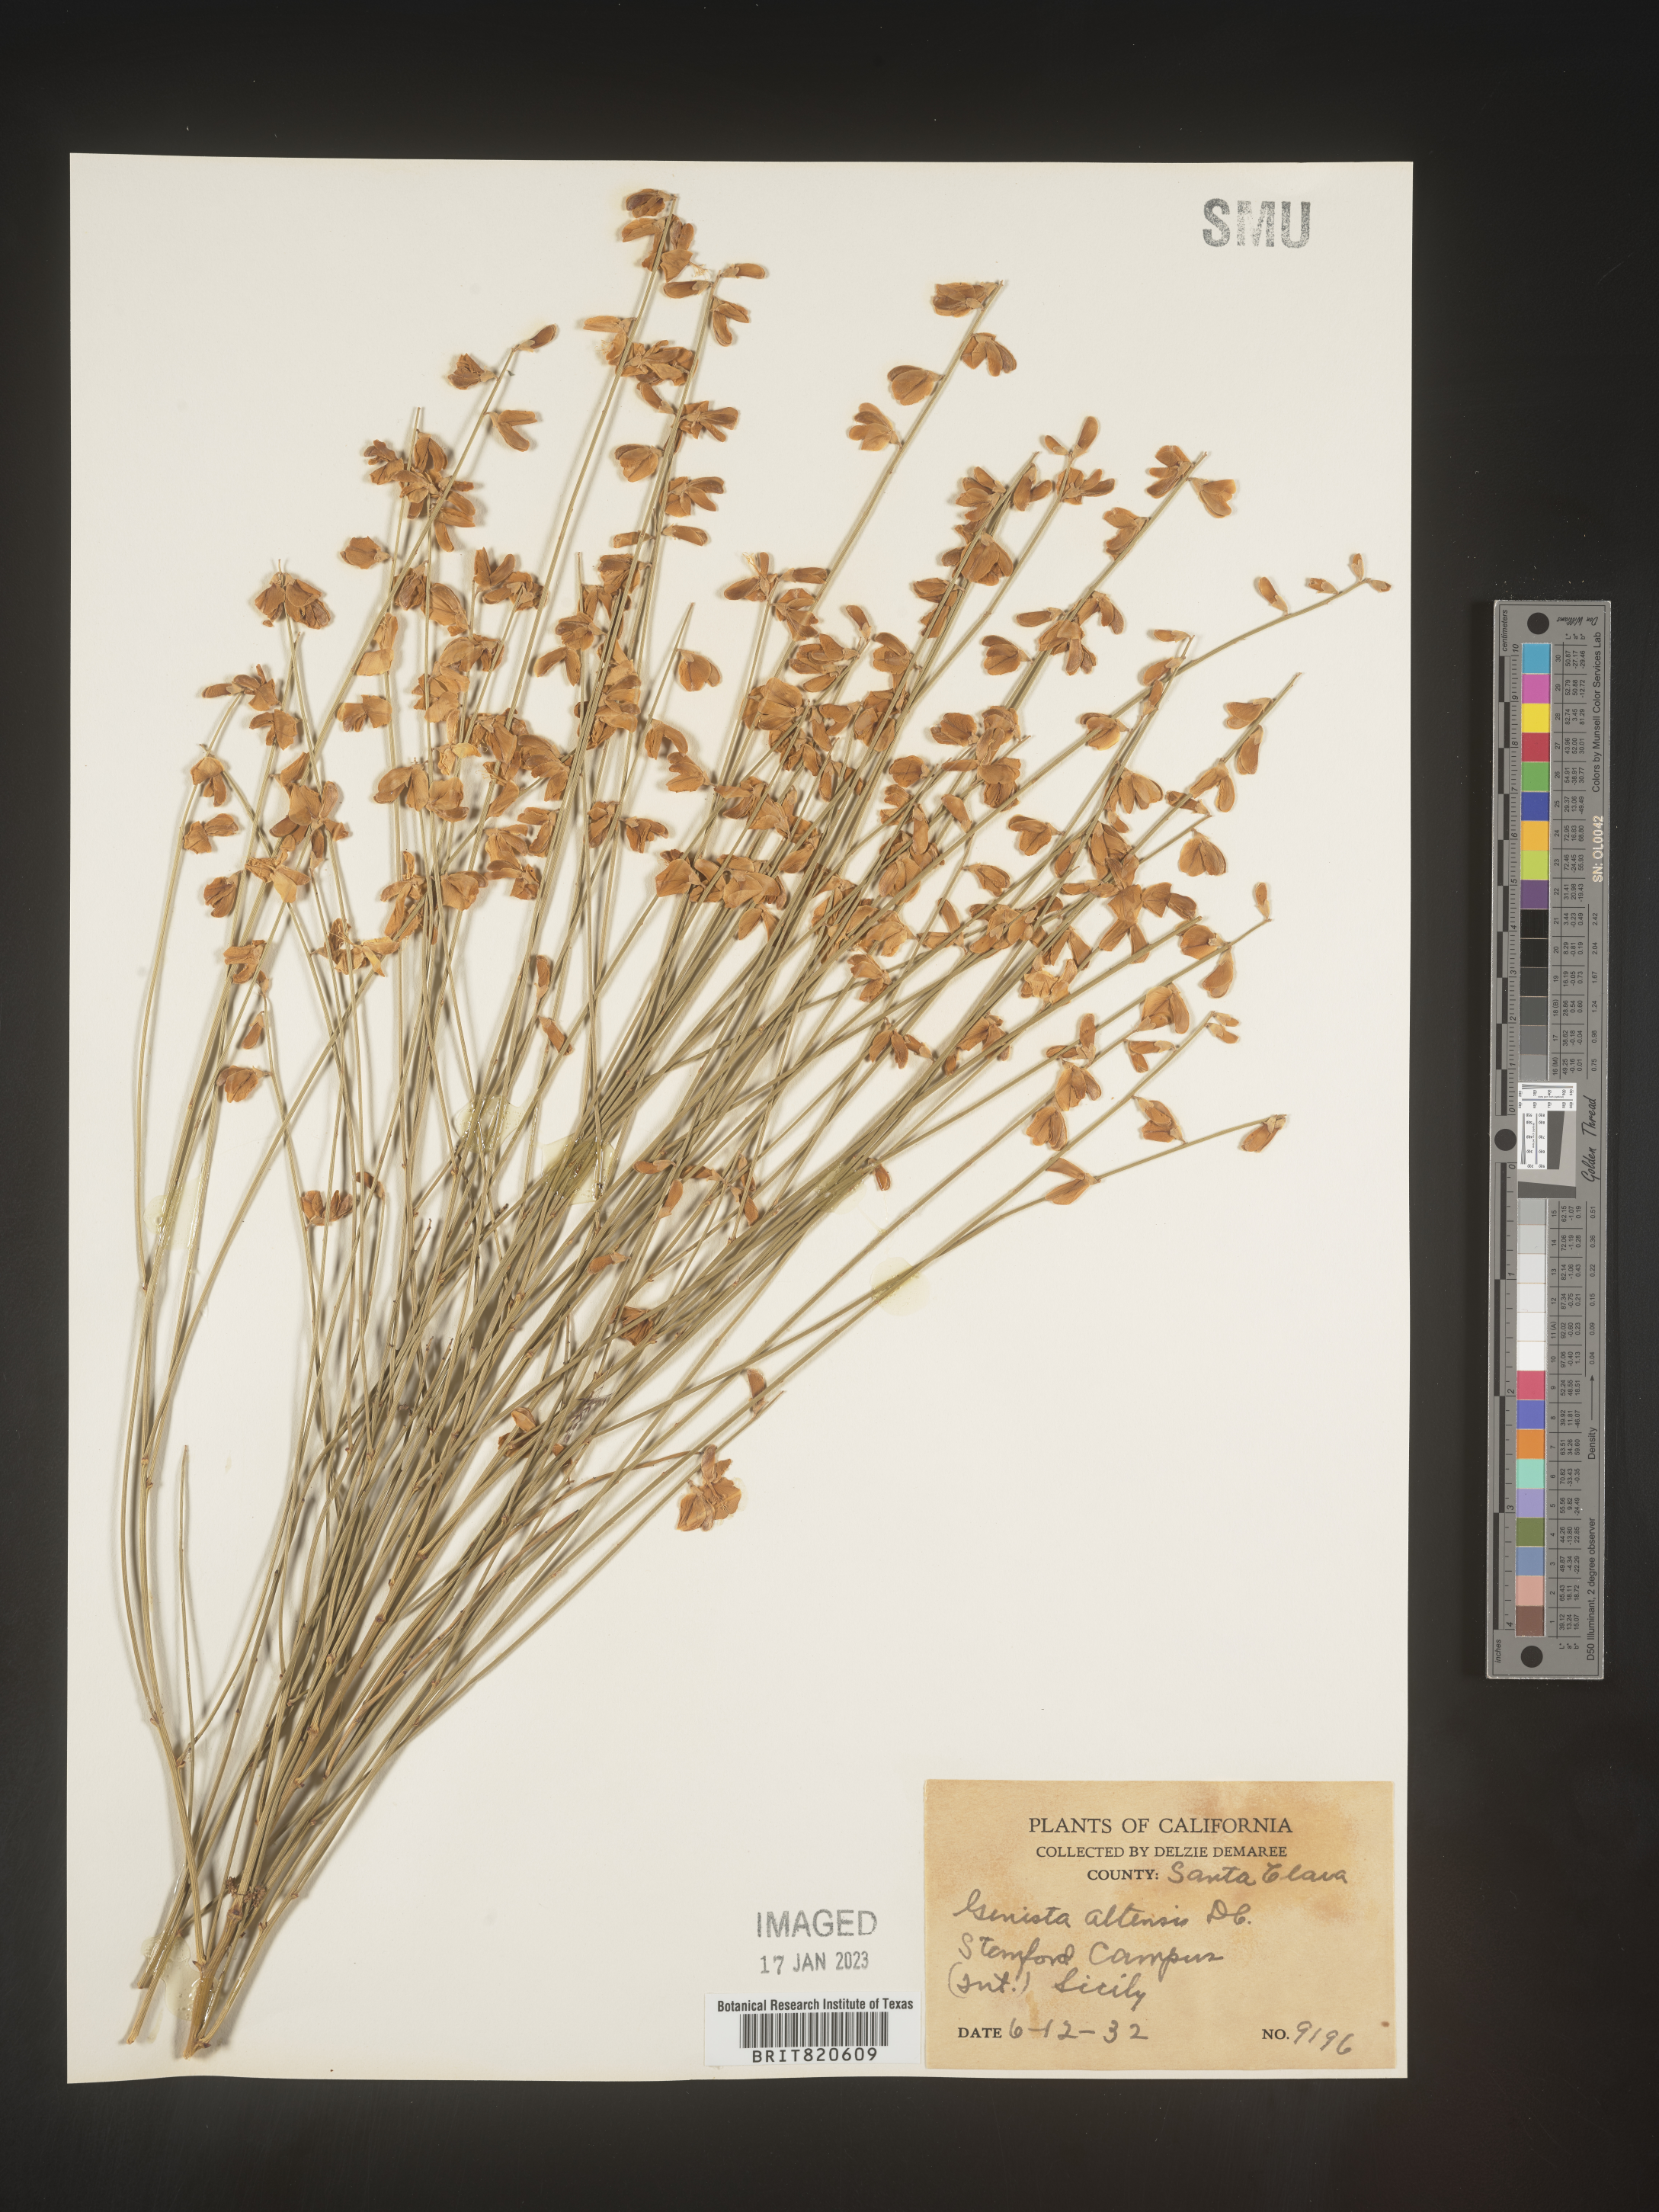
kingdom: Plantae
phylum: Tracheophyta
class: Magnoliopsida
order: Fabales
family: Fabaceae
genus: Genista
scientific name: Genista
